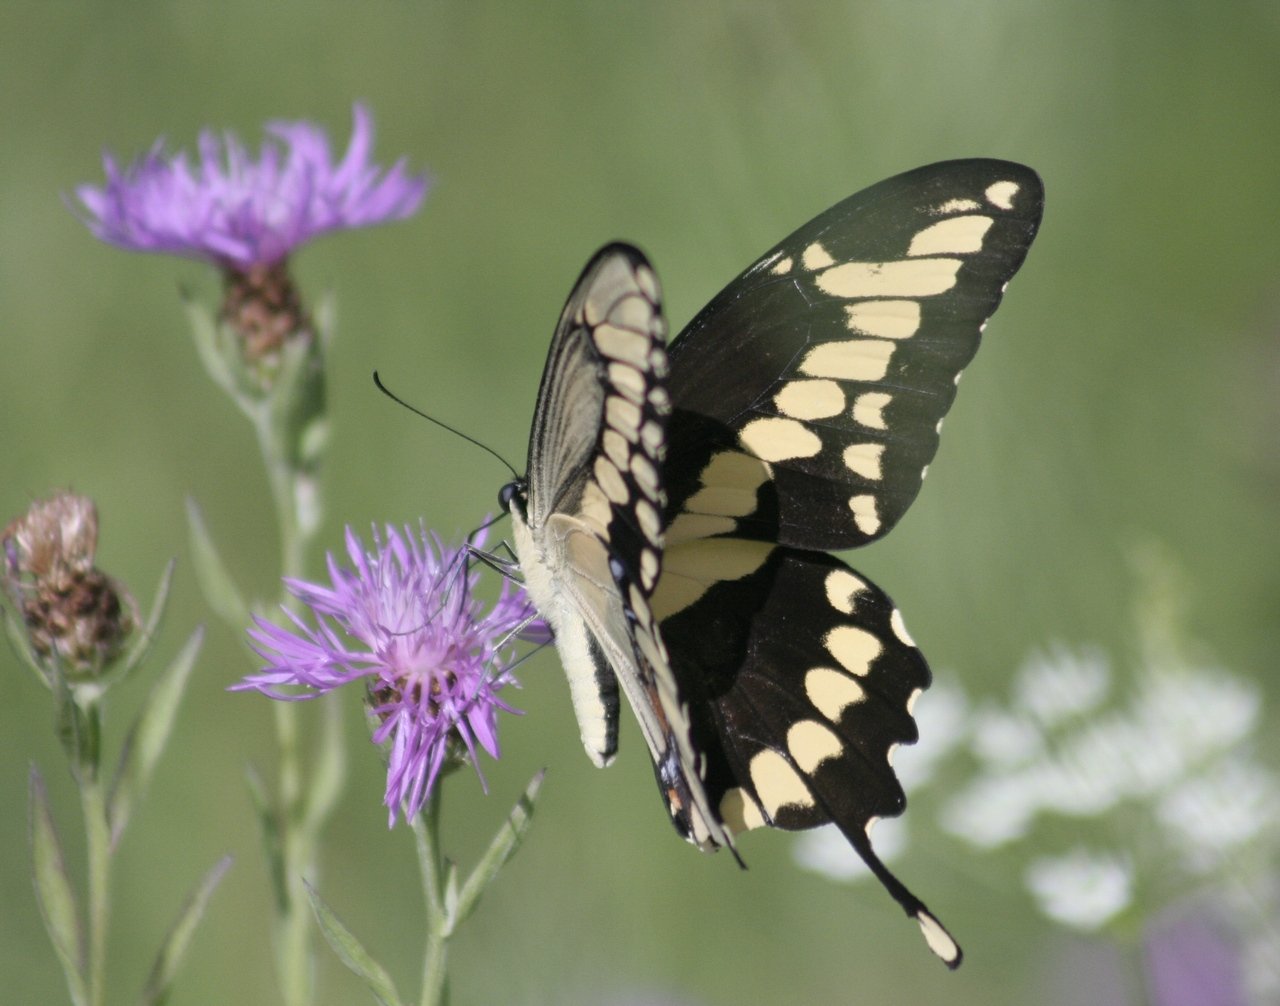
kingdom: Animalia
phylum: Arthropoda
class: Insecta
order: Lepidoptera
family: Papilionidae
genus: Papilio
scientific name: Papilio cresphontes
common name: Eastern Giant Swallowtail
